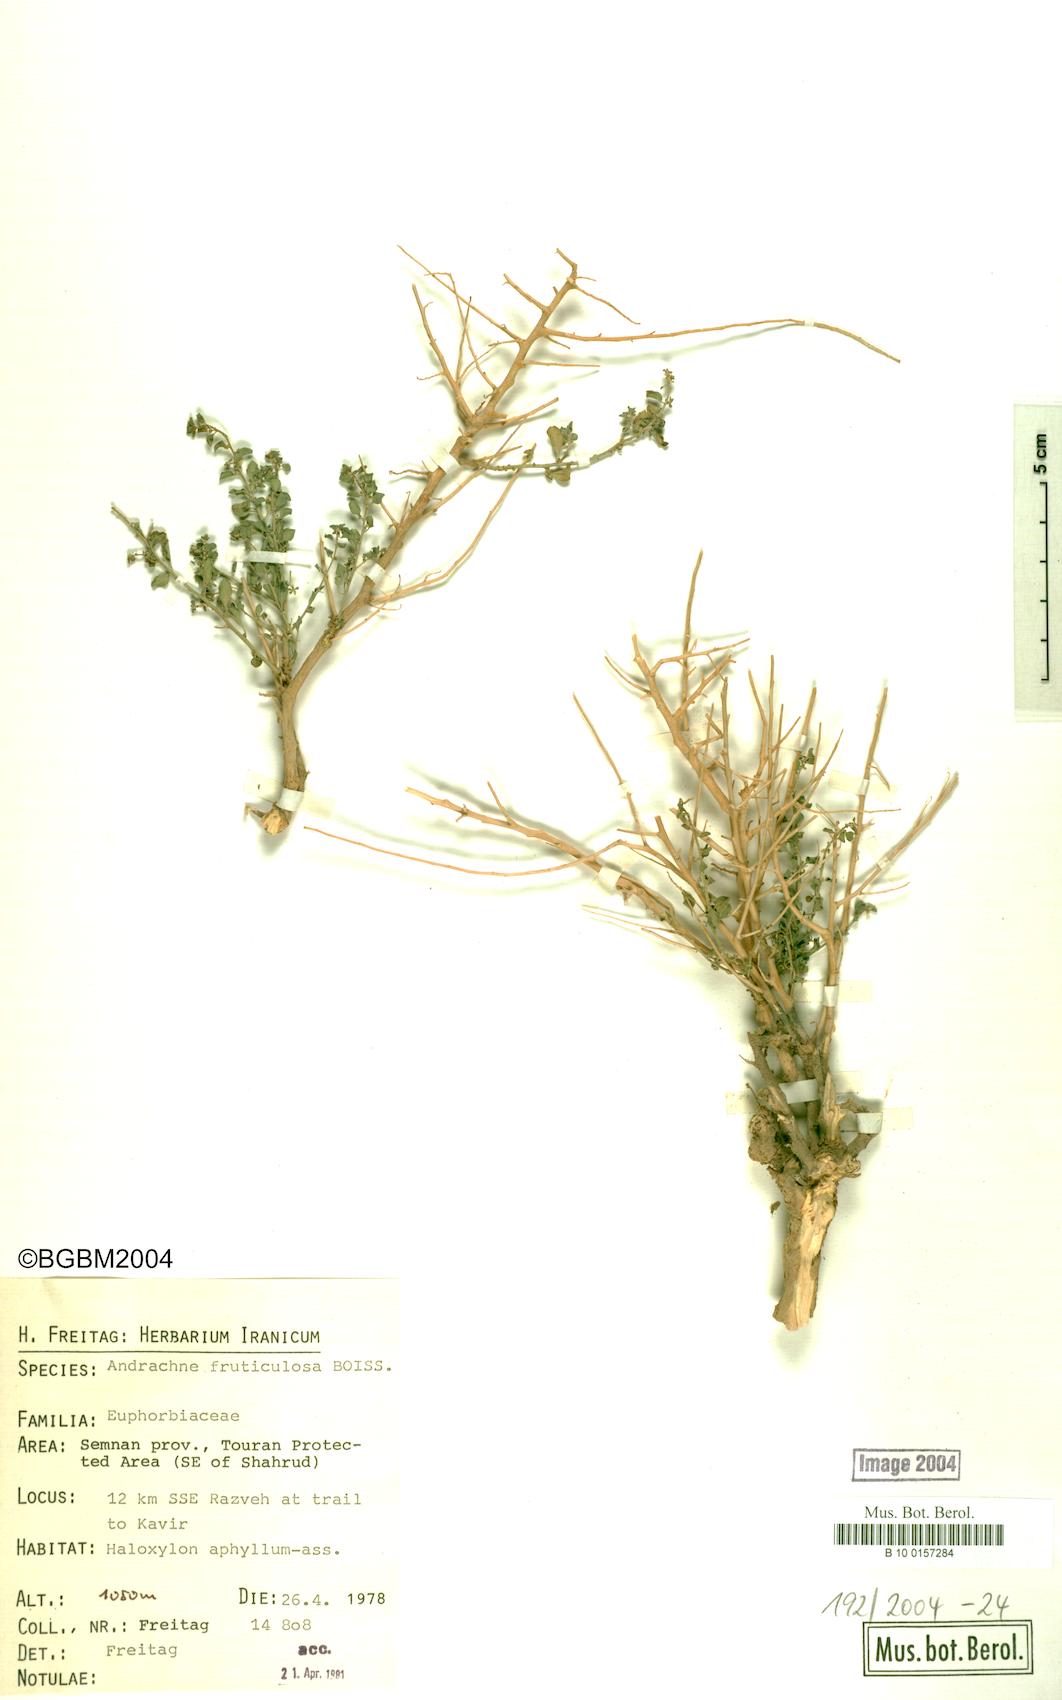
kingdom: Plantae
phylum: Tracheophyta
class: Magnoliopsida
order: Malpighiales
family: Phyllanthaceae
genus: Andrachne
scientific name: Andrachne fruticulosa
